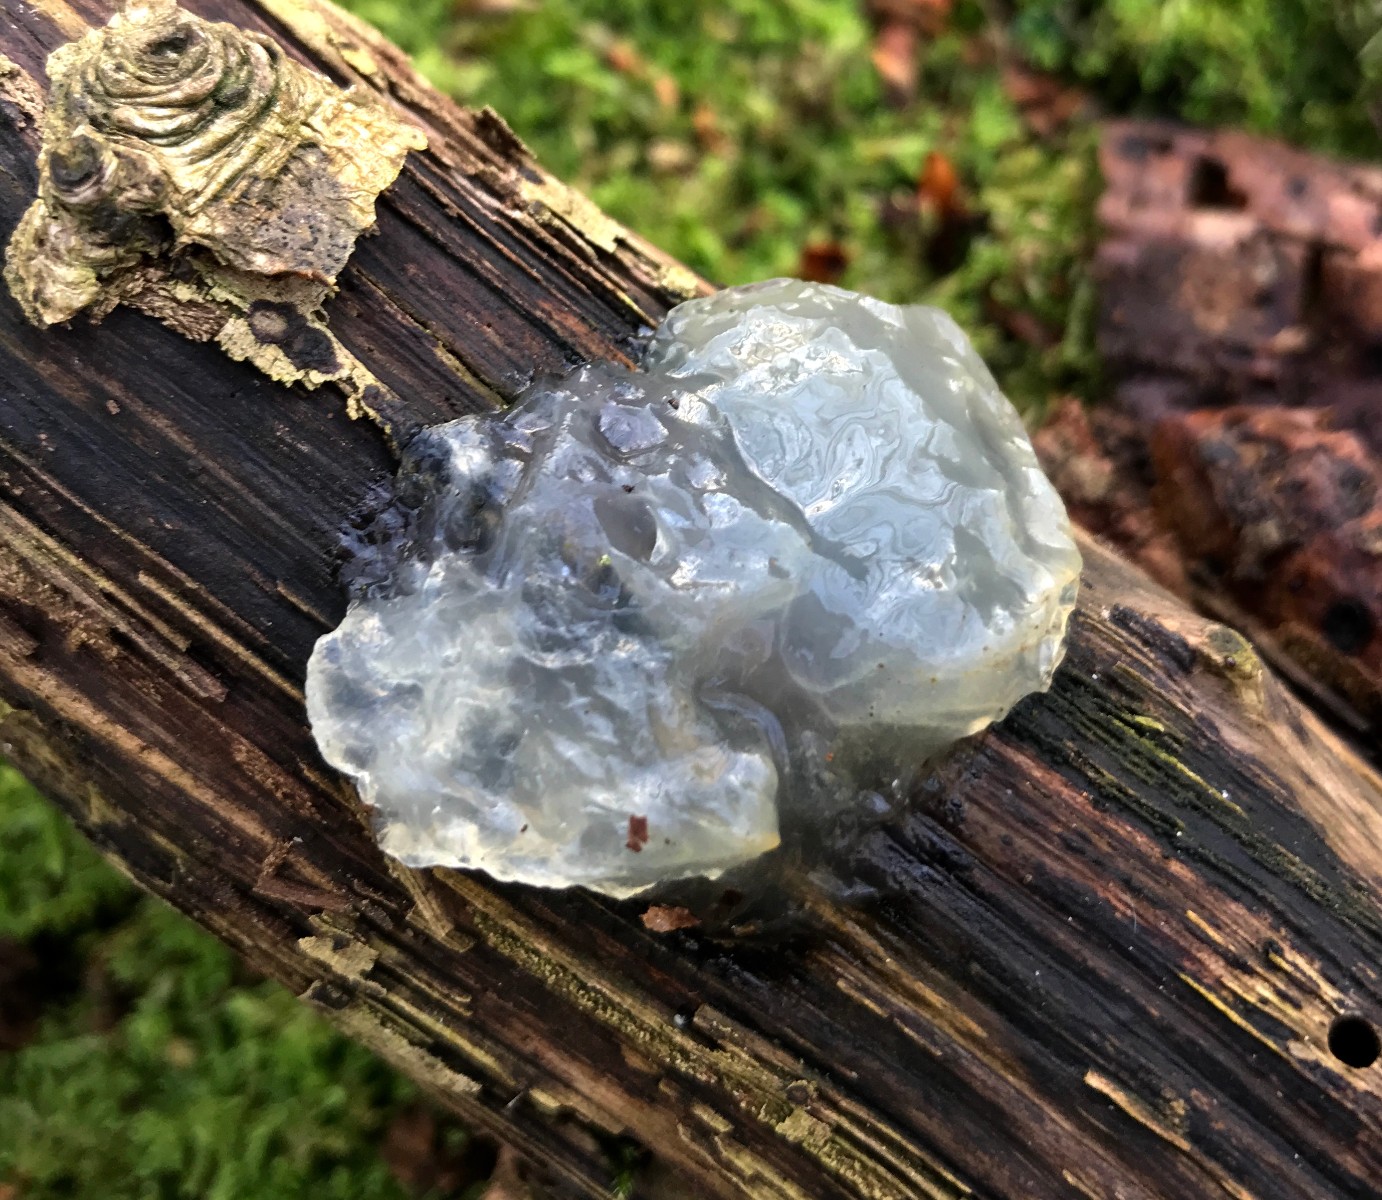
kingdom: Fungi
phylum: Basidiomycota
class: Agaricomycetes
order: Auriculariales
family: Hyaloriaceae
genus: Myxarium
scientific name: Myxarium nucleatum
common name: klar bævretop
